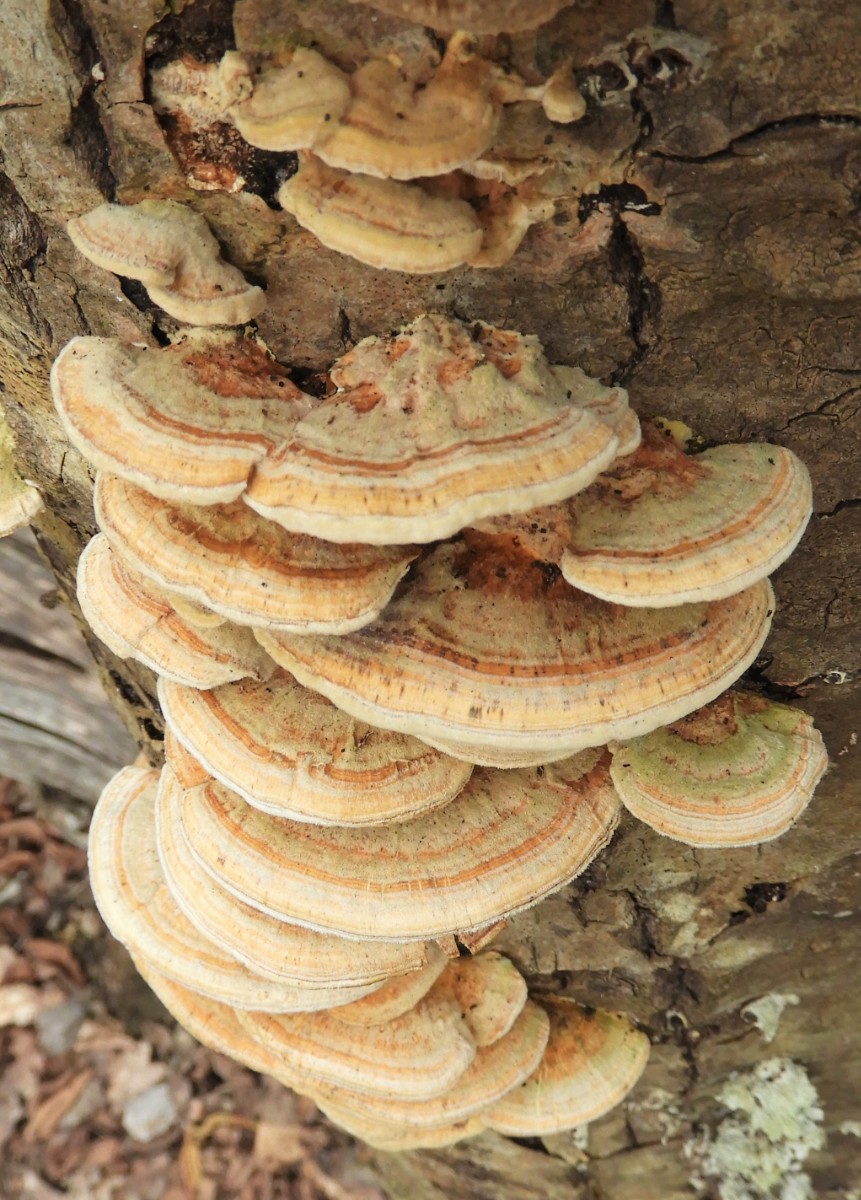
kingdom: Fungi
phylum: Basidiomycota
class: Agaricomycetes
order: Polyporales
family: Polyporaceae
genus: Trametes
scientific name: Trametes ochracea
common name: bæltet læderporesvamp
